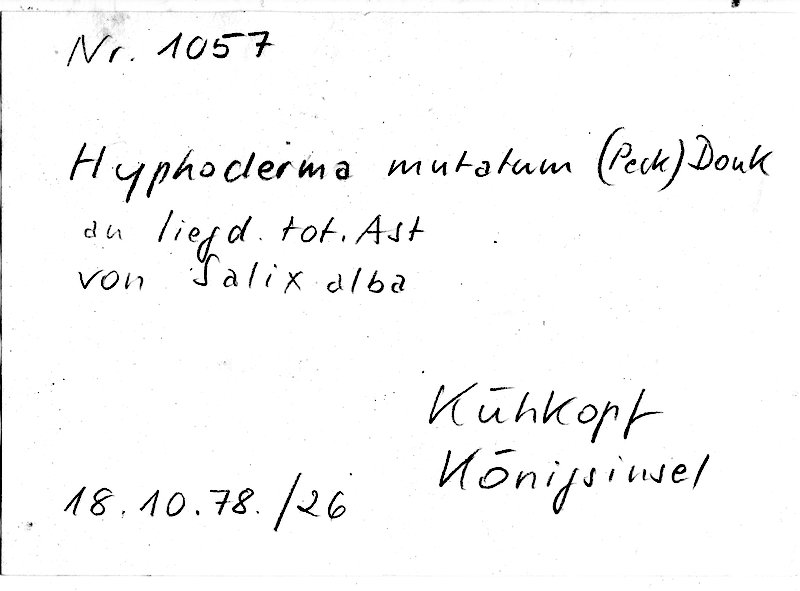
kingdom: Plantae
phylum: Tracheophyta
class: Magnoliopsida
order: Malpighiales
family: Salicaceae
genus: Salix
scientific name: Salix alba
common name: White willow
